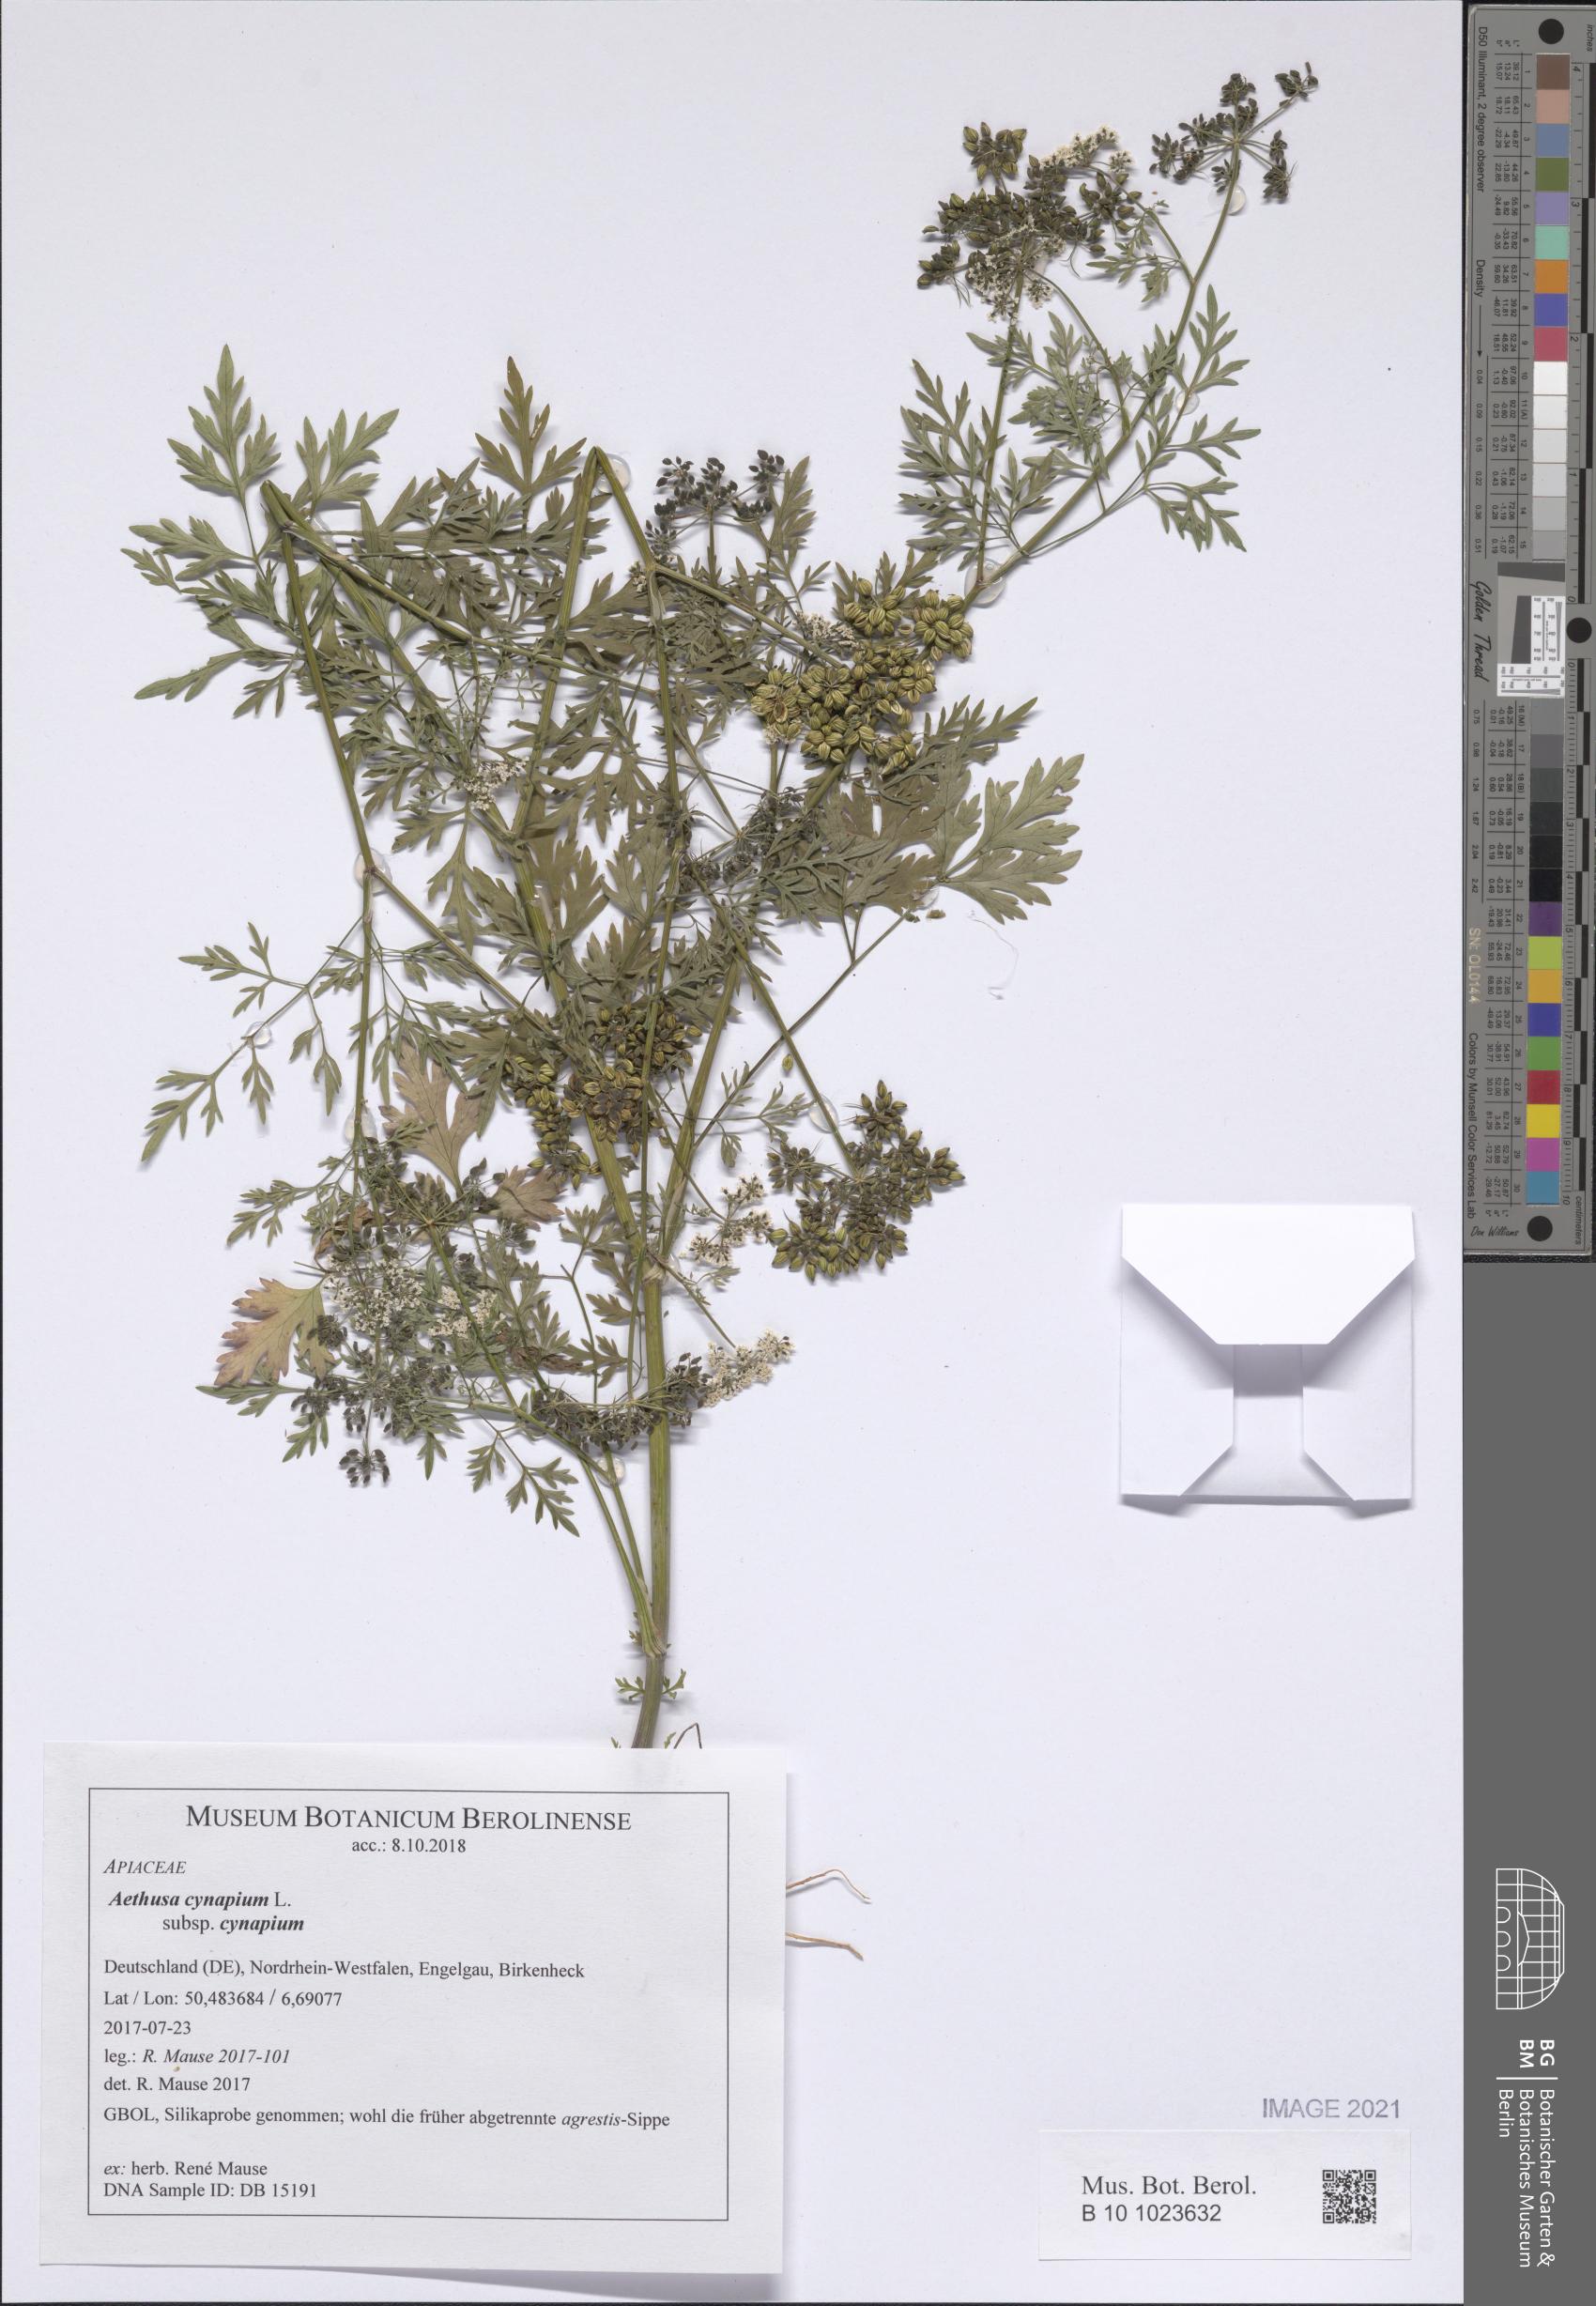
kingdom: Plantae
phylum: Tracheophyta
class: Magnoliopsida
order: Apiales
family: Apiaceae
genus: Aethusa
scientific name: Aethusa cynapium
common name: Fool's parsley
